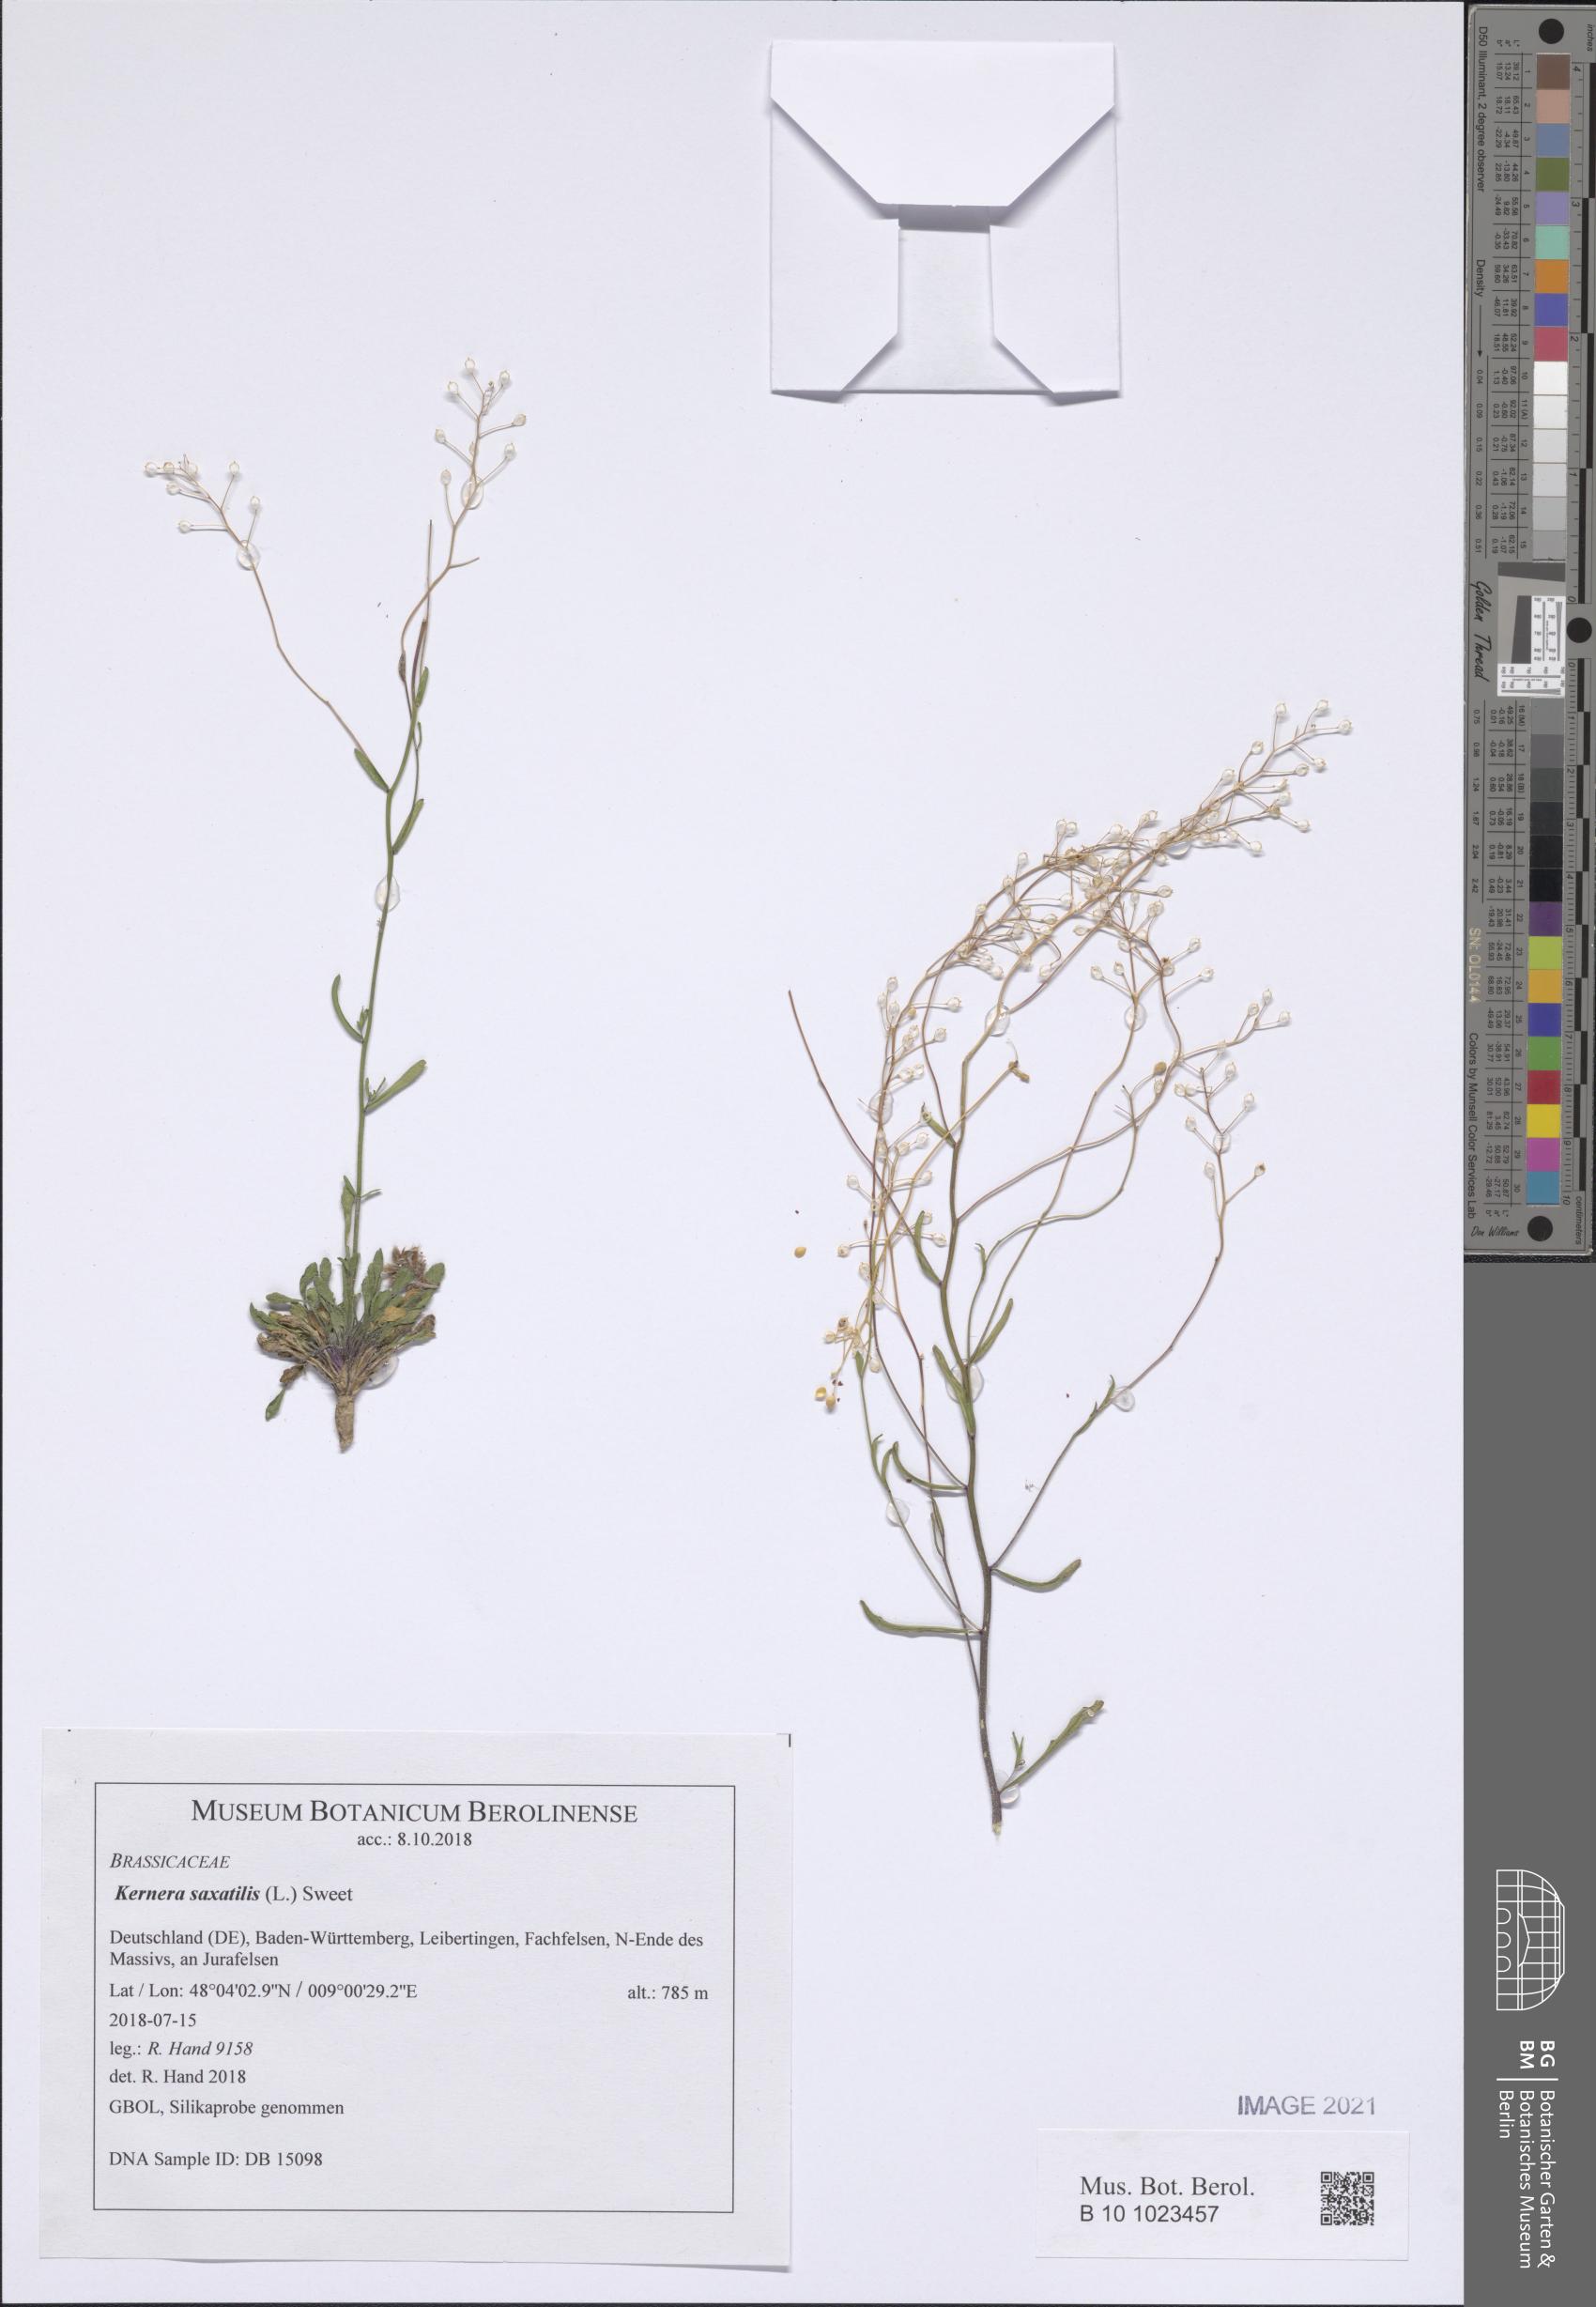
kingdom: Plantae
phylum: Tracheophyta
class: Magnoliopsida
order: Brassicales
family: Brassicaceae
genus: Kernera
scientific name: Kernera saxatilis
